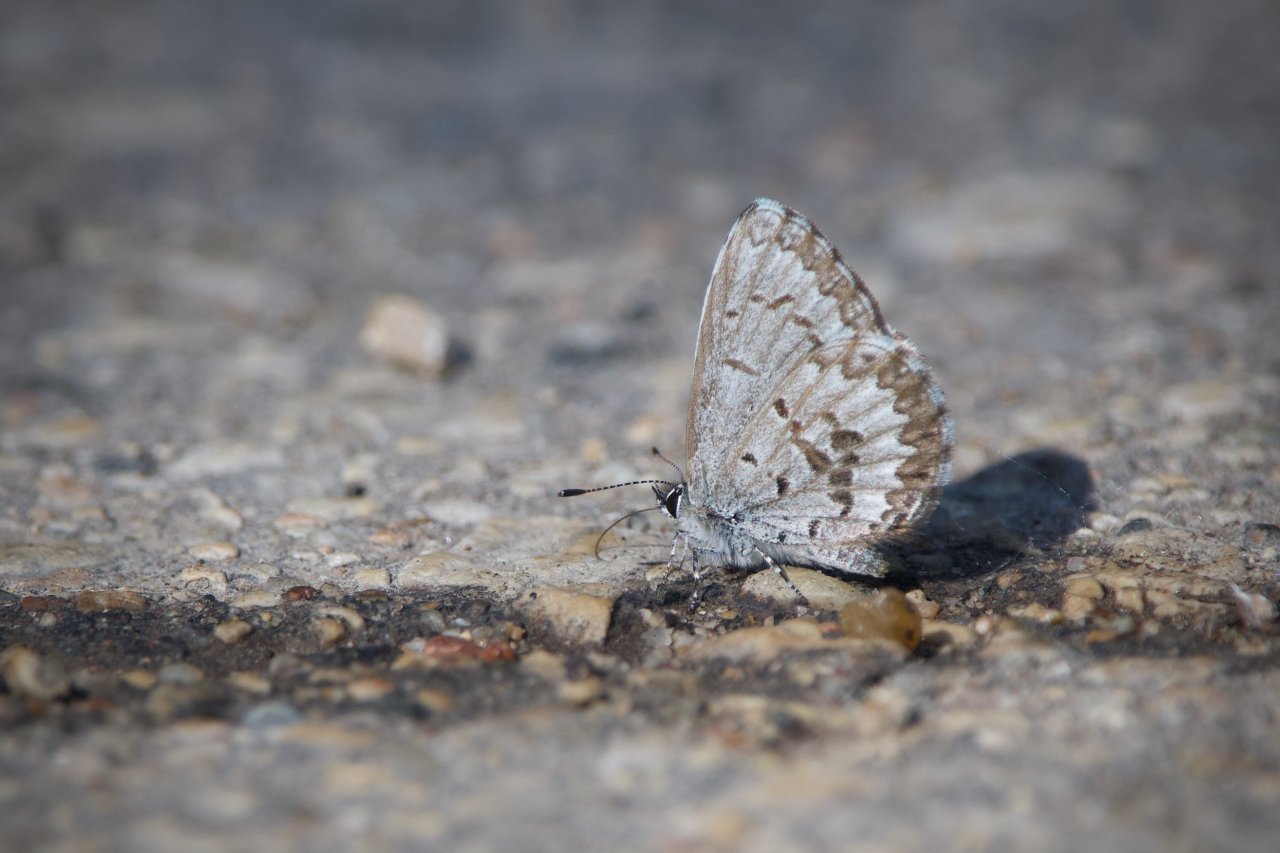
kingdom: Animalia
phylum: Arthropoda
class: Insecta
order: Lepidoptera
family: Lycaenidae
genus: Celastrina
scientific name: Celastrina lucia
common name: Northern Spring Azure
